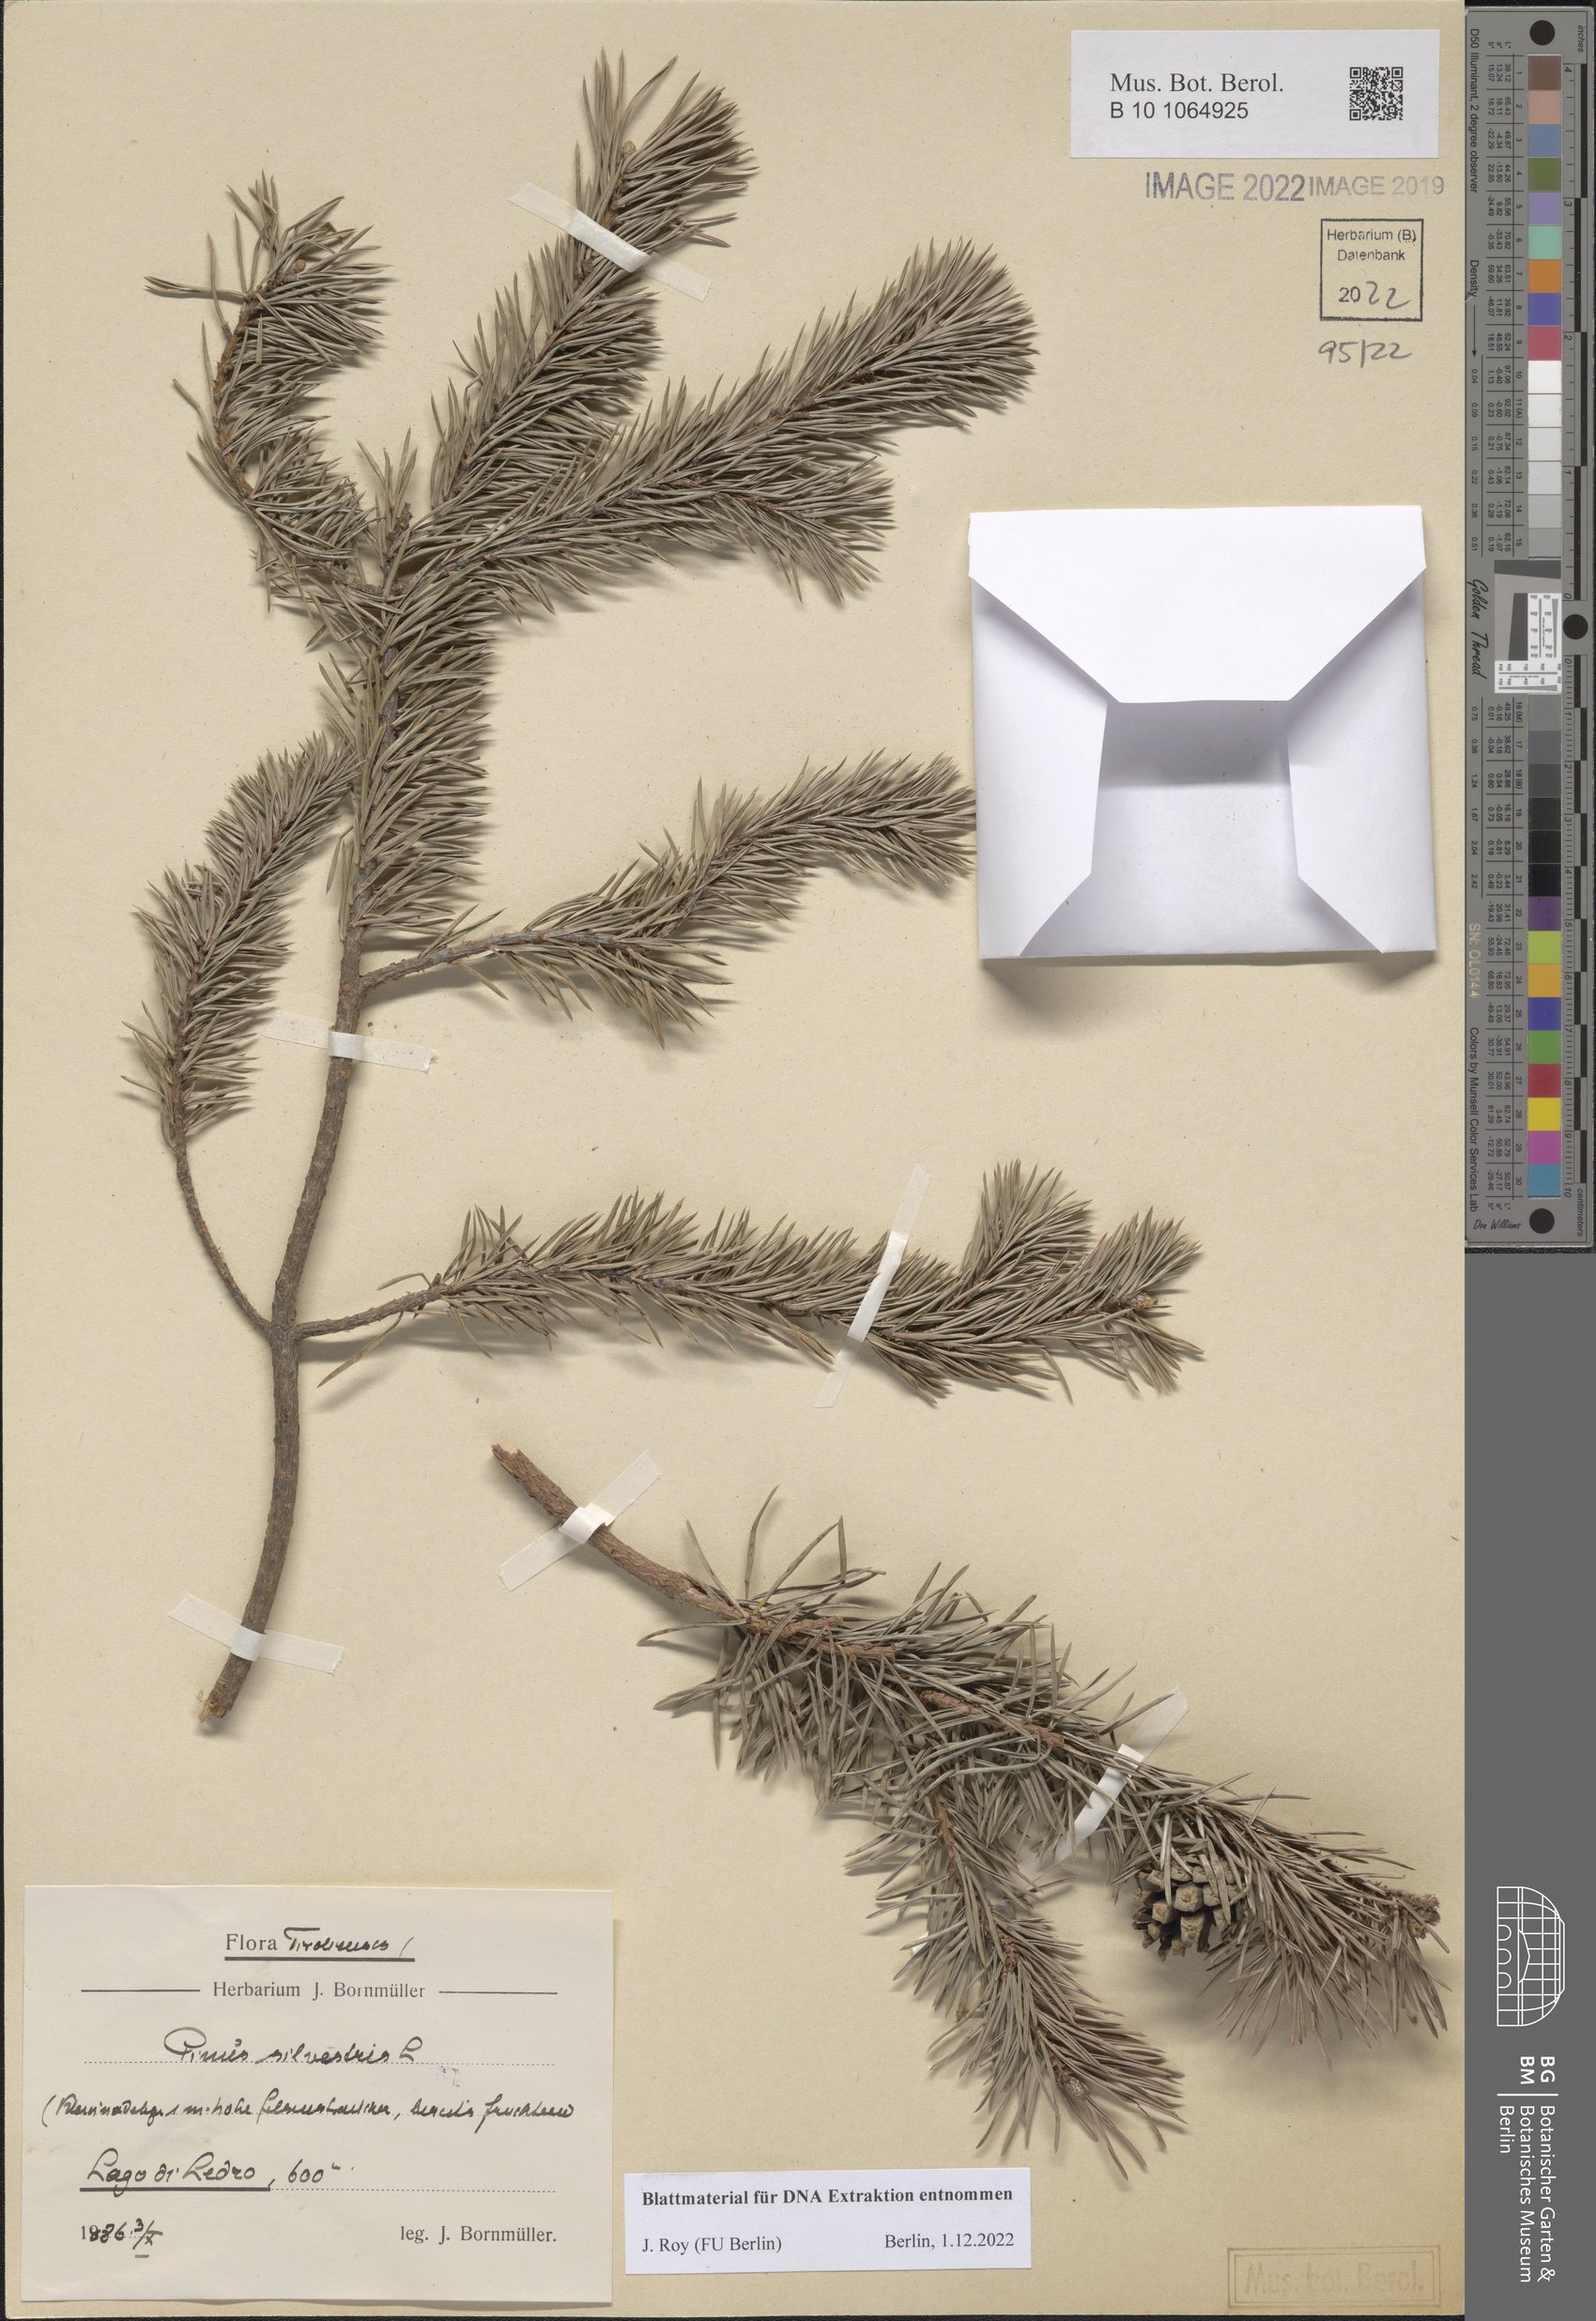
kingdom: Plantae
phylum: Tracheophyta
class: Pinopsida
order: Pinales
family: Pinaceae
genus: Pinus
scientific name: Pinus sylvestris
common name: Scots pine
